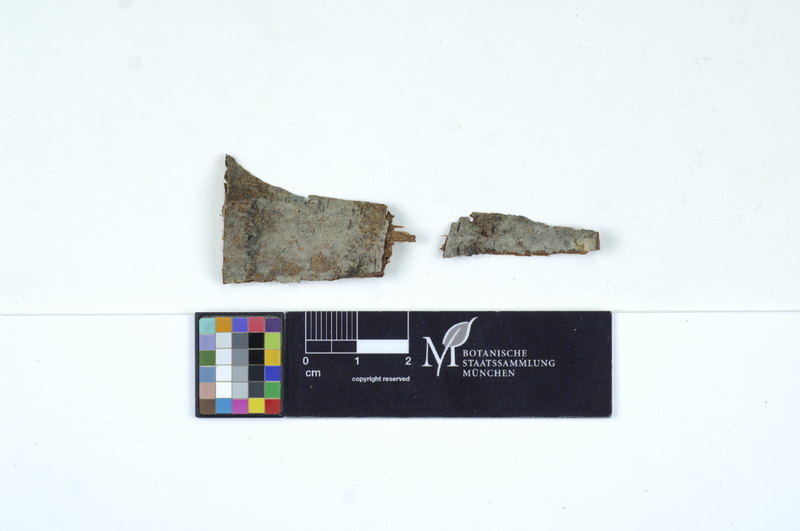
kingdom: Plantae
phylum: Tracheophyta
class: Magnoliopsida
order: Malpighiales
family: Salicaceae
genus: Populus
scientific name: Populus
